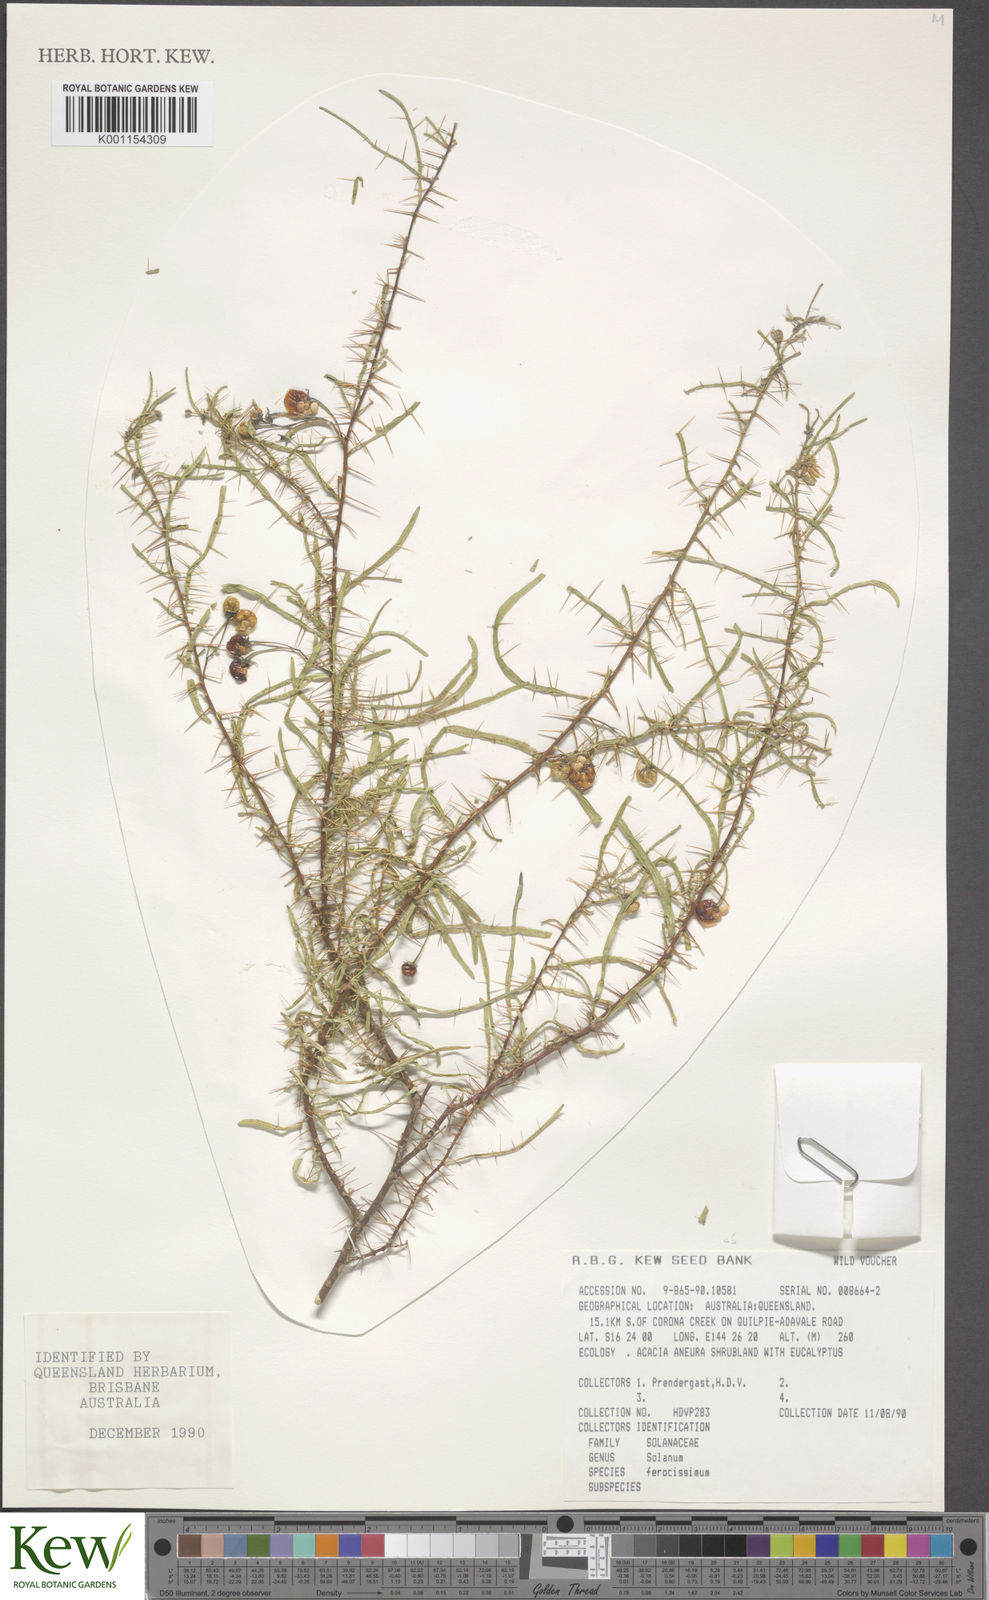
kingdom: Plantae
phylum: Tracheophyta
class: Magnoliopsida
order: Solanales
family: Solanaceae
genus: Solanum
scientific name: Solanum ferocissimum
